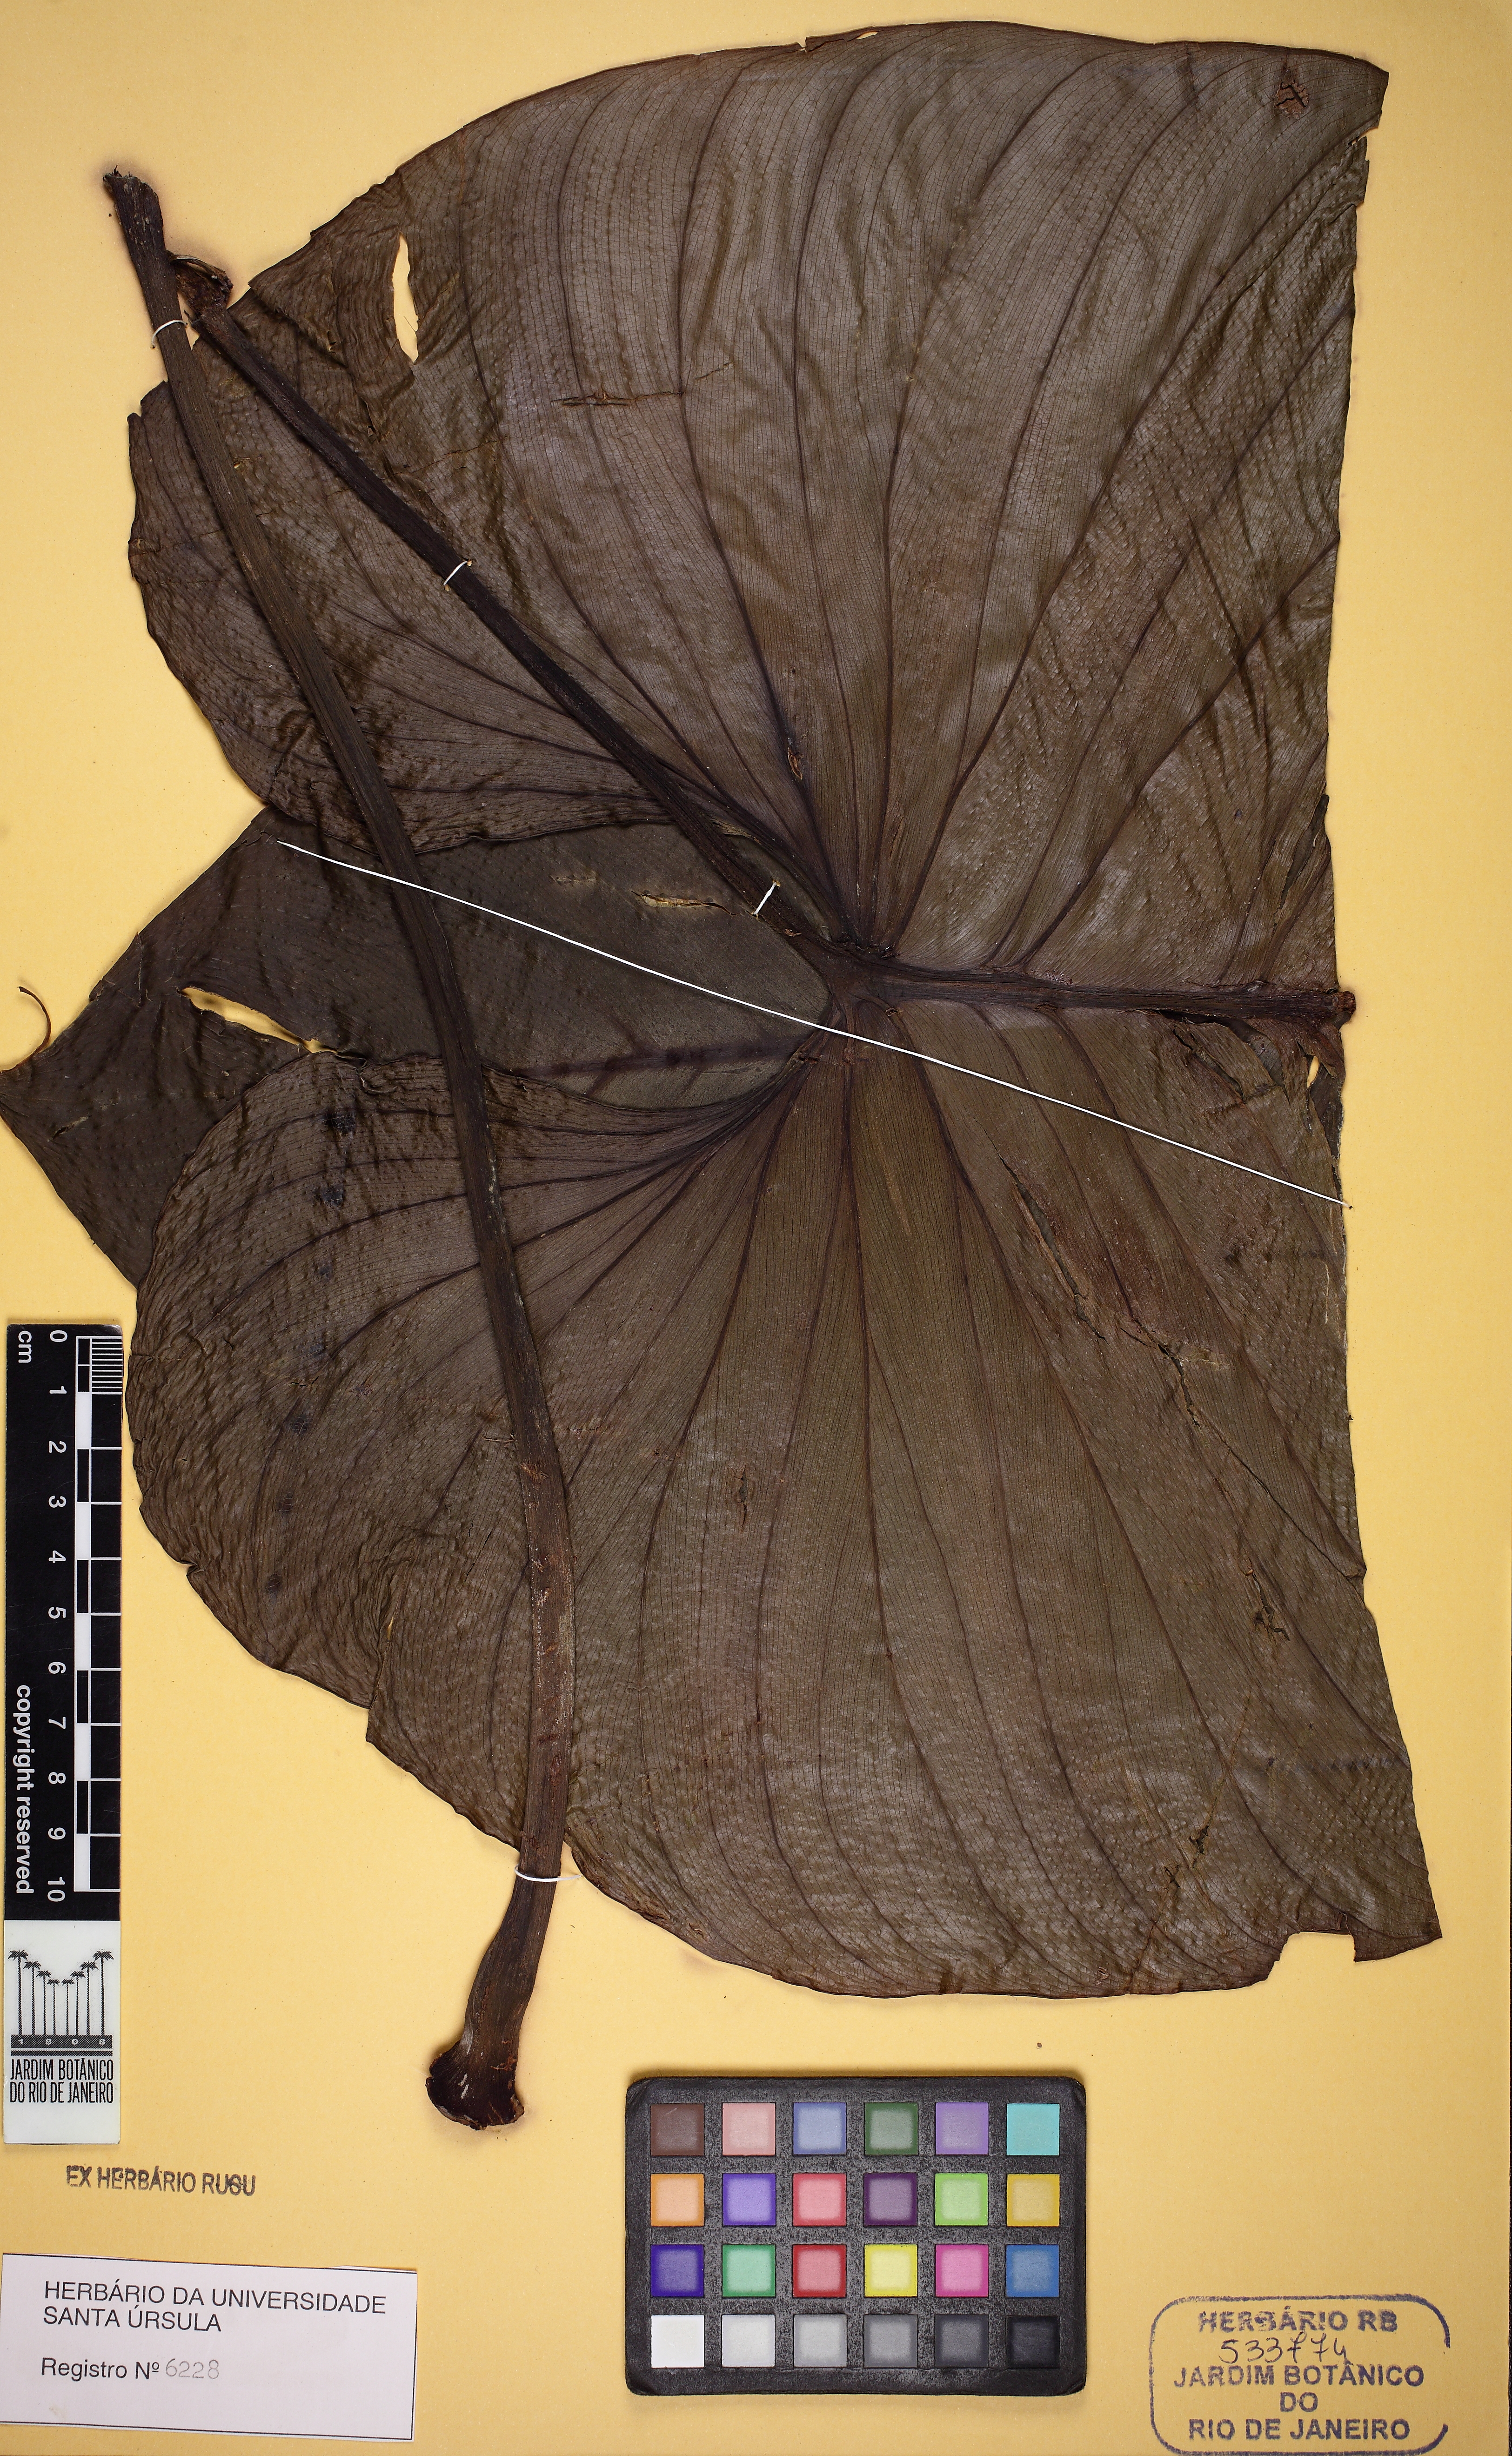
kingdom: Plantae
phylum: Tracheophyta
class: Liliopsida
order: Alismatales
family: Araceae
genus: Philodendron
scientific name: Philodendron ornatum
